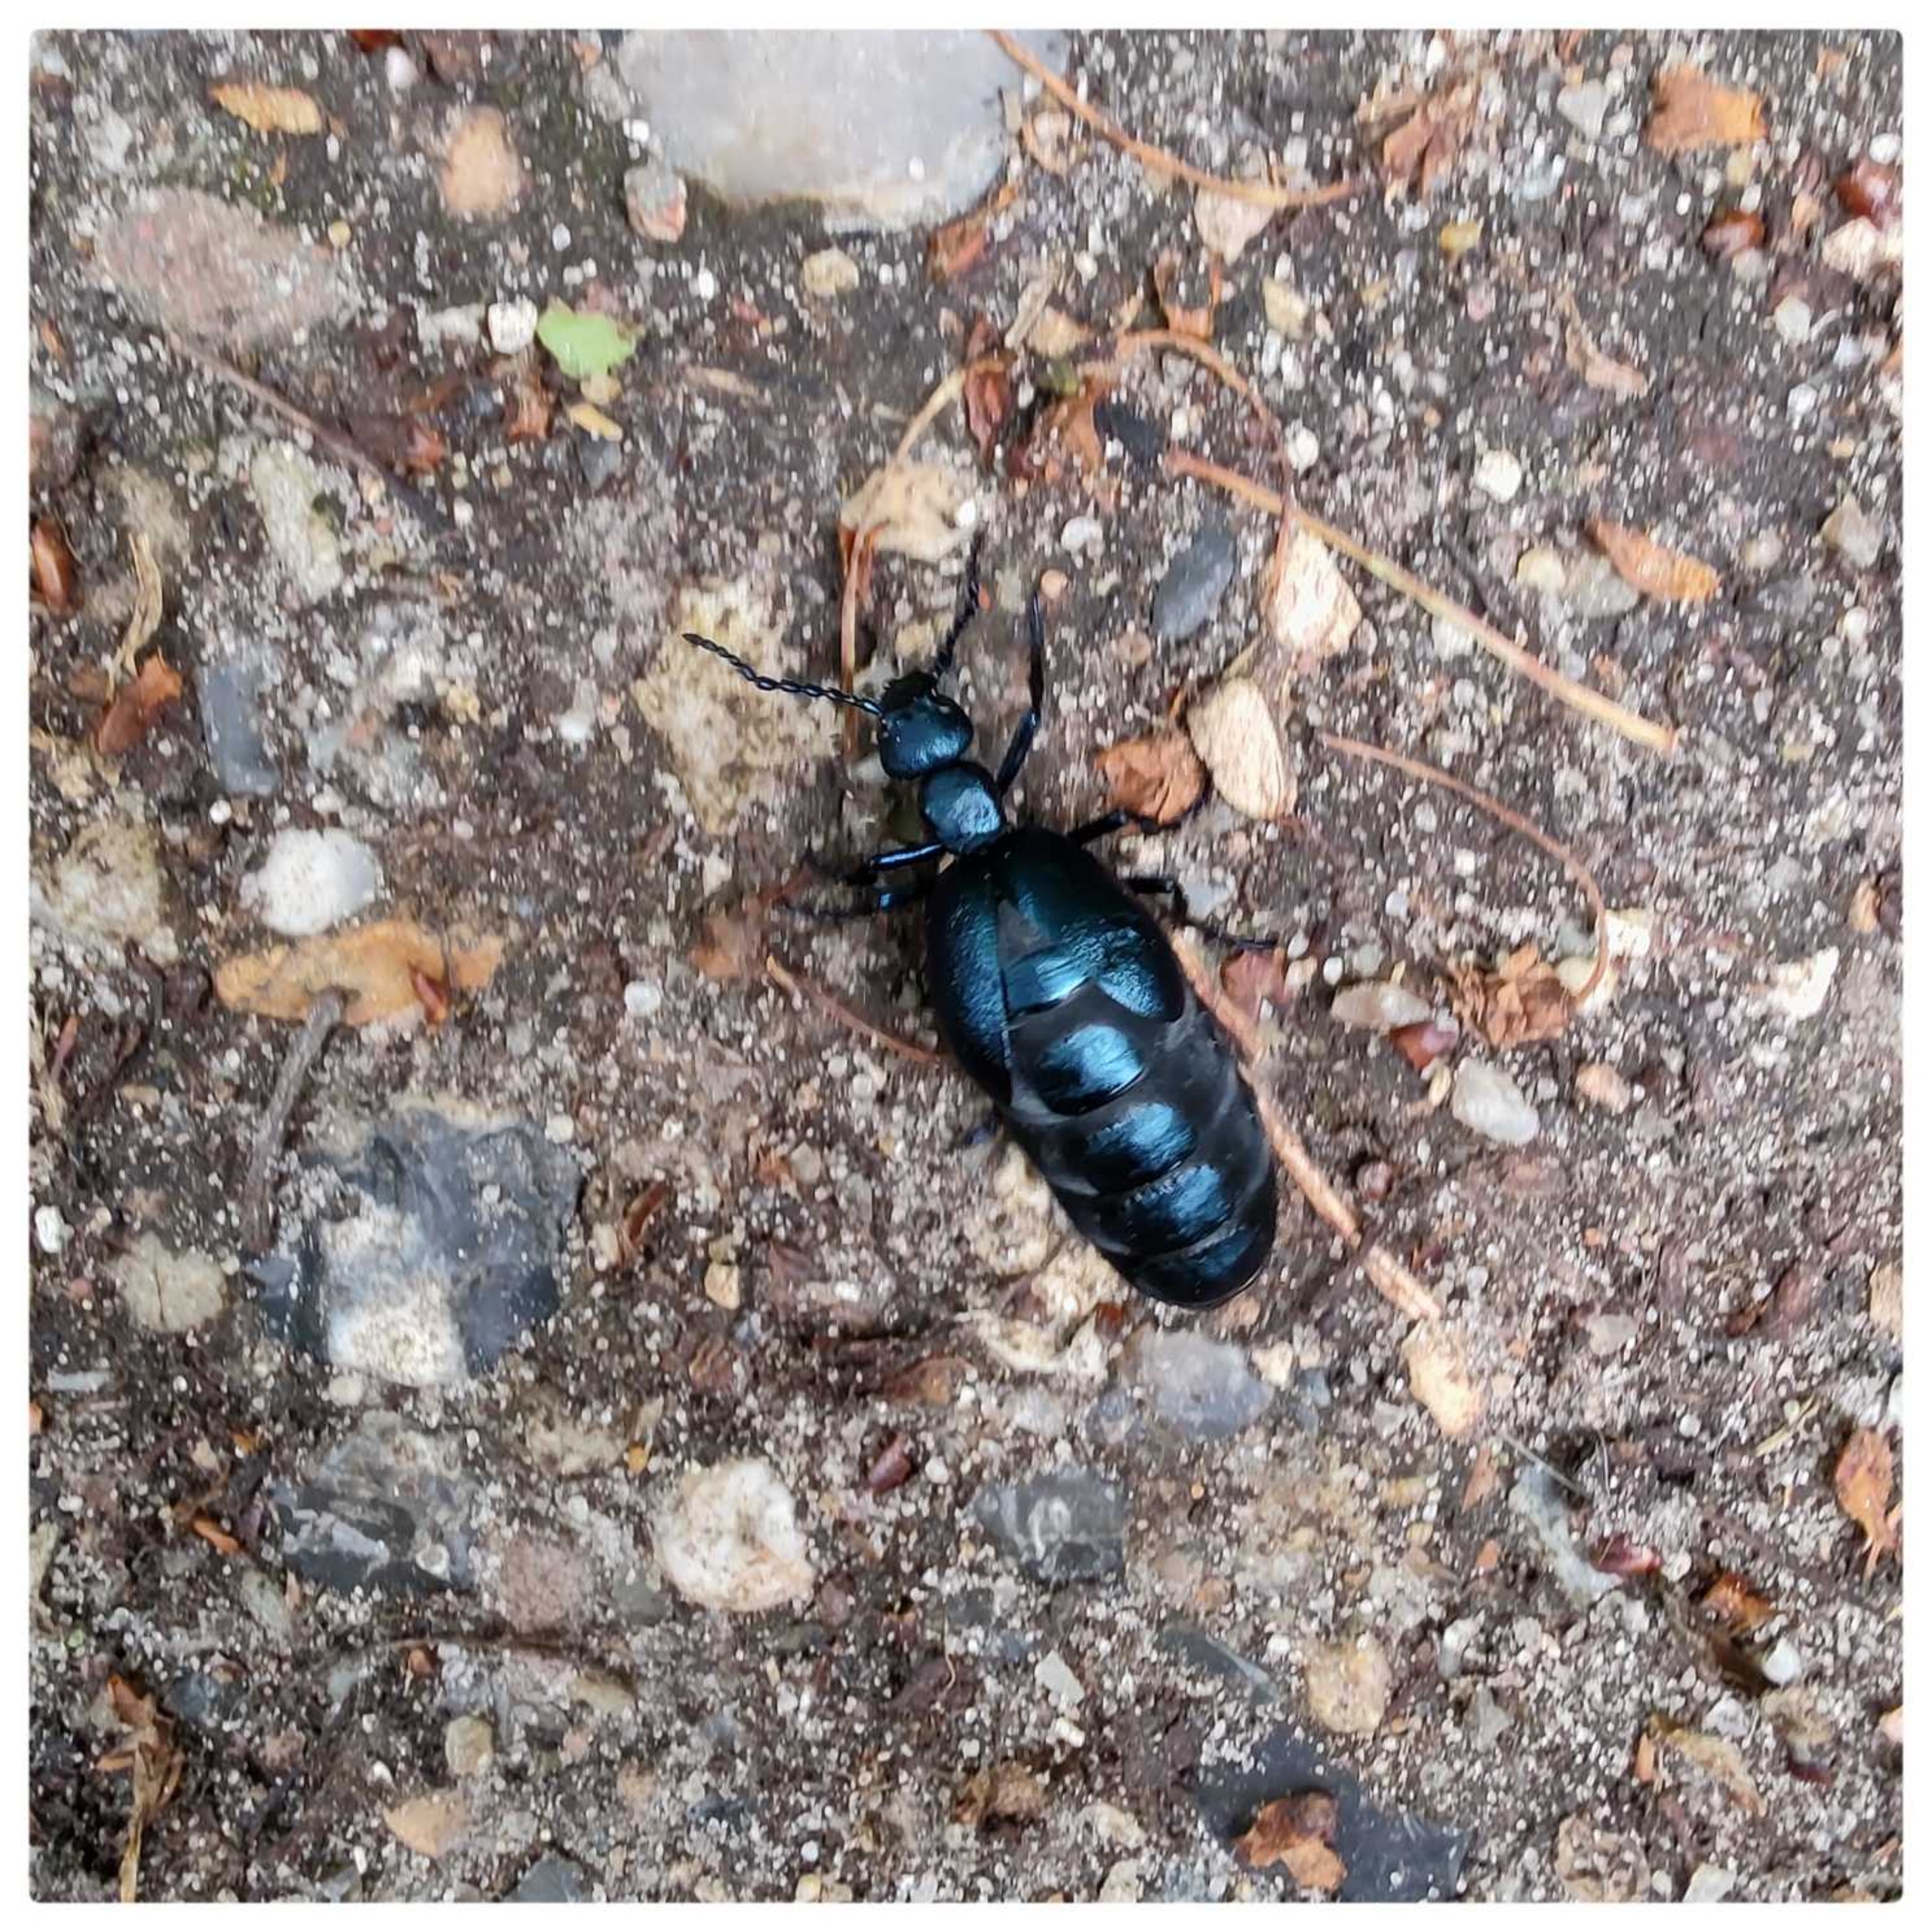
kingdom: Animalia
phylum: Arthropoda
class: Insecta
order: Coleoptera
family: Meloidae
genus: Meloe
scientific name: Meloe violaceus
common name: Blå oliebille
